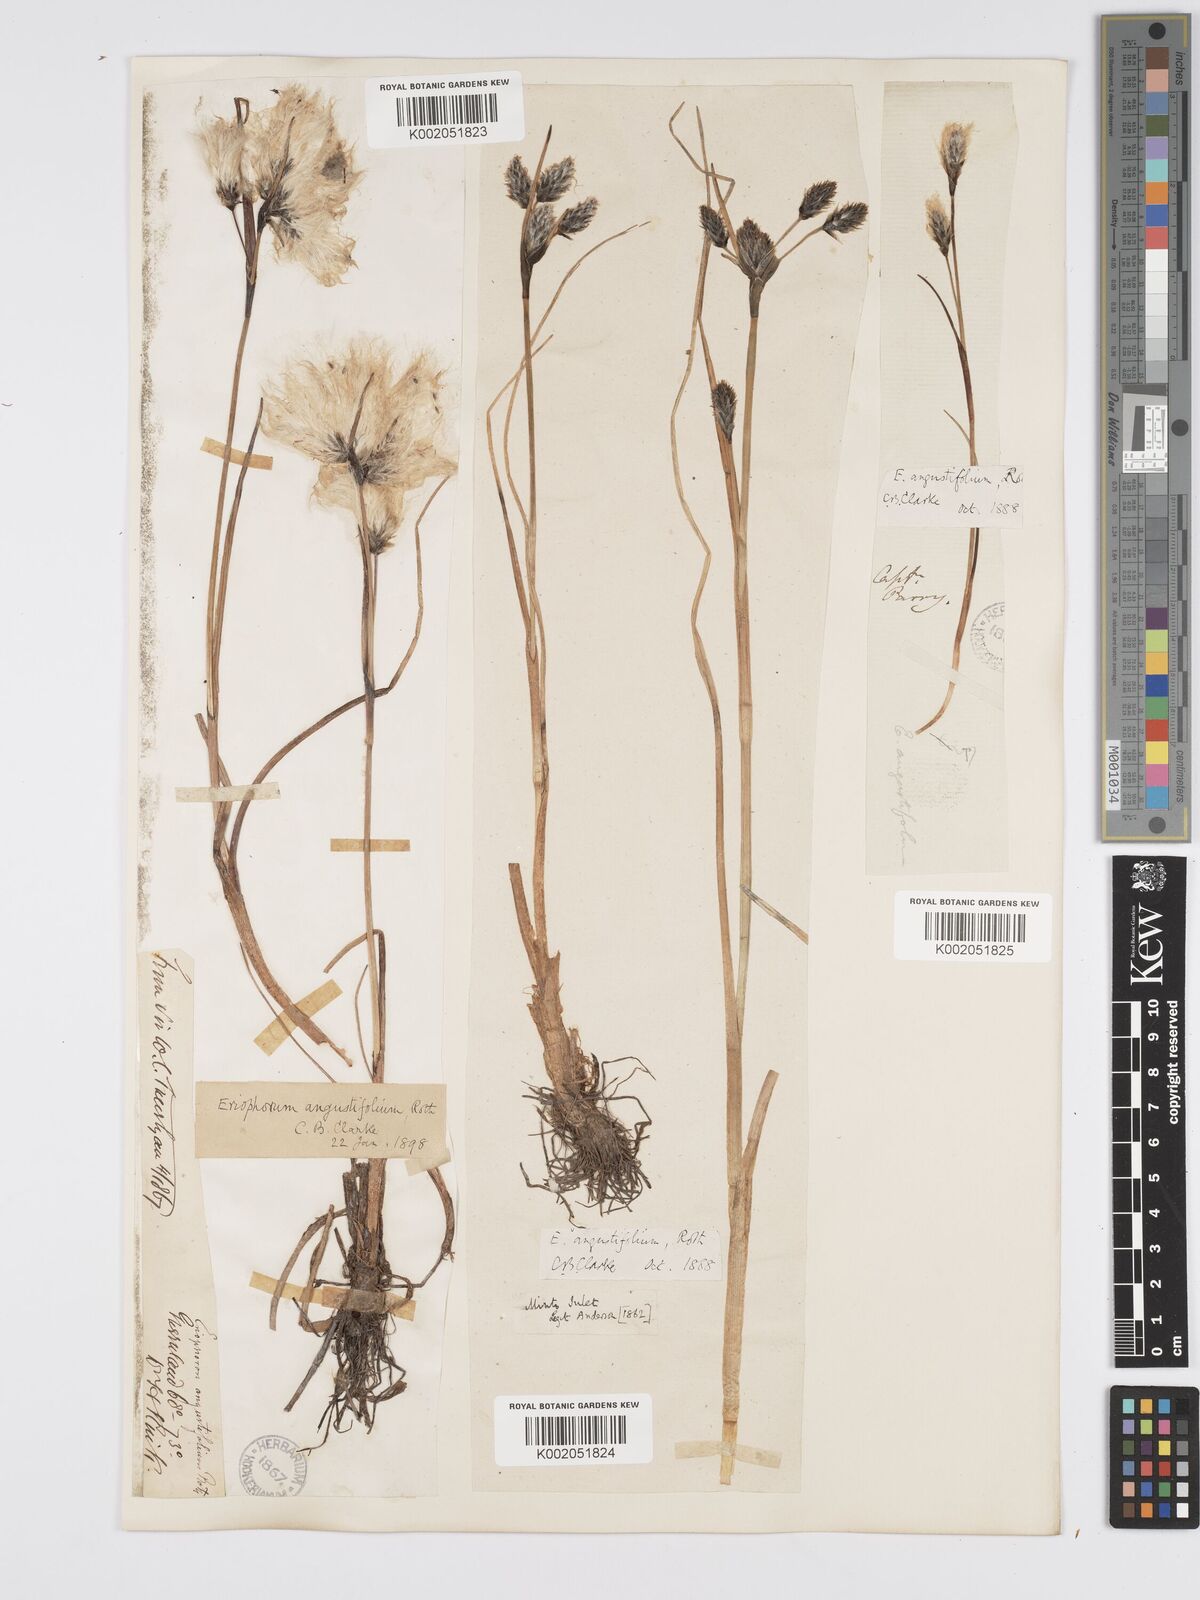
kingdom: Plantae
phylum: Tracheophyta
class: Liliopsida
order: Poales
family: Cyperaceae
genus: Eriophorum
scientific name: Eriophorum angustifolium
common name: Common cottongrass
